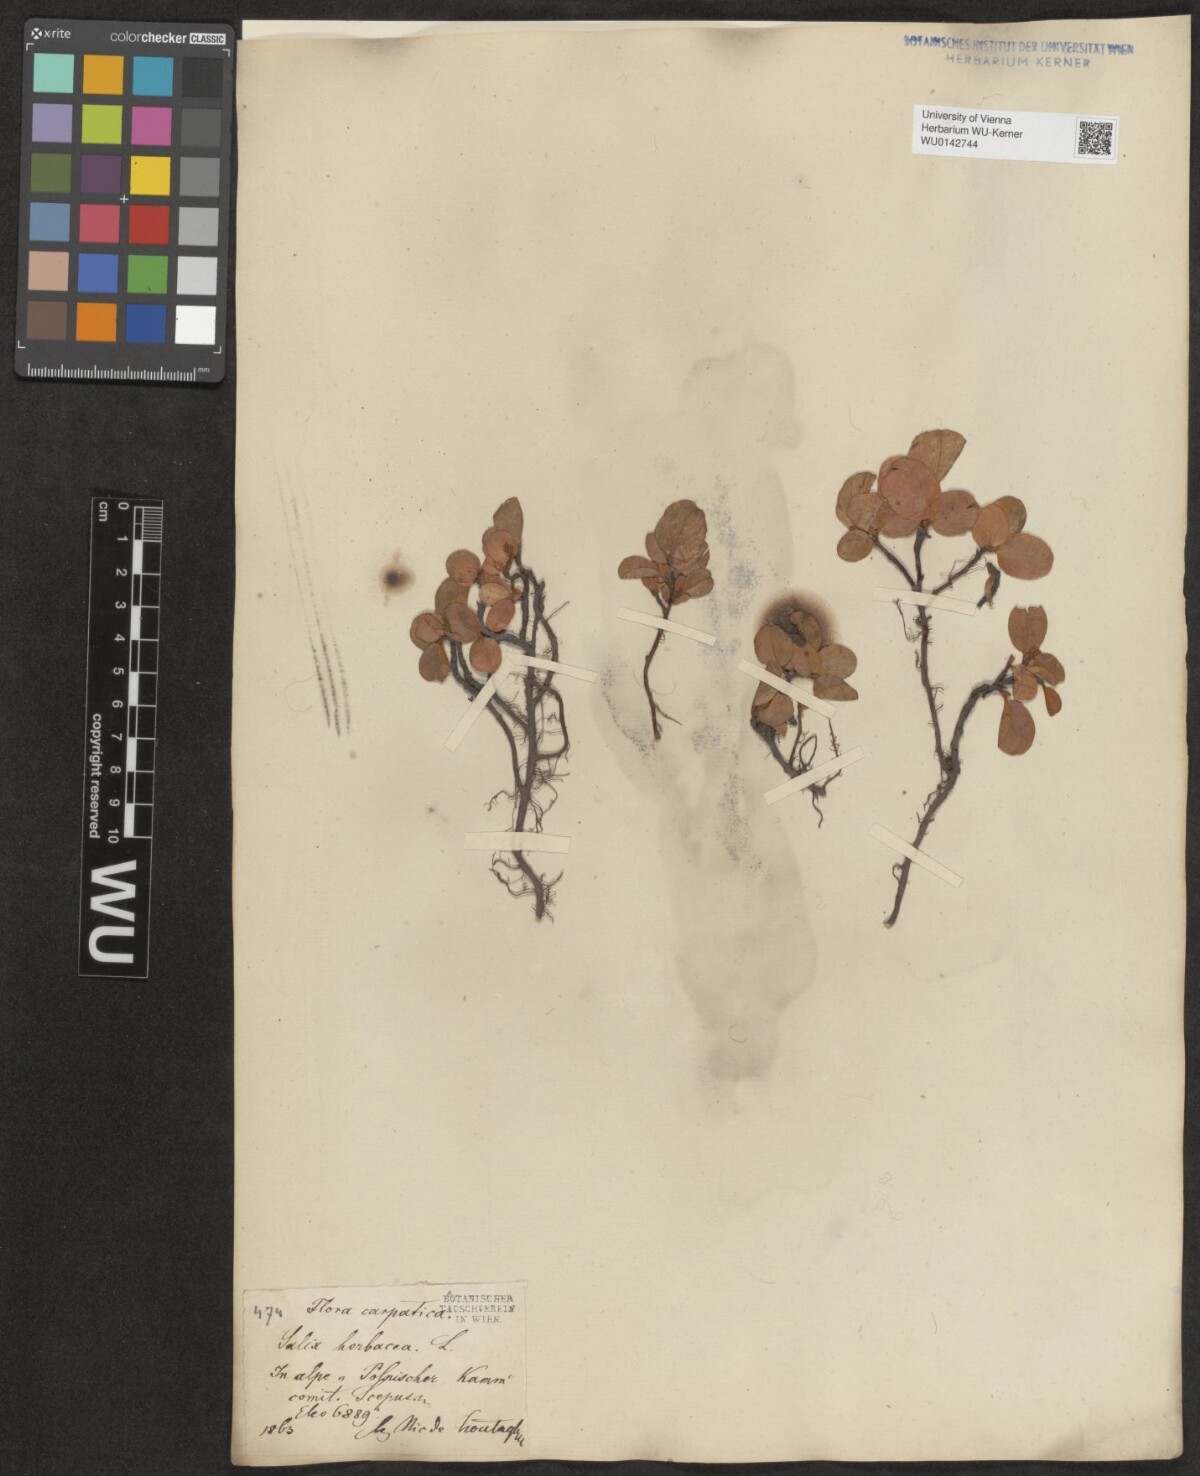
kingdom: Plantae
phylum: Tracheophyta
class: Magnoliopsida
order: Malpighiales
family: Salicaceae
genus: Salix
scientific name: Salix herbacea
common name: Dwarf willow
